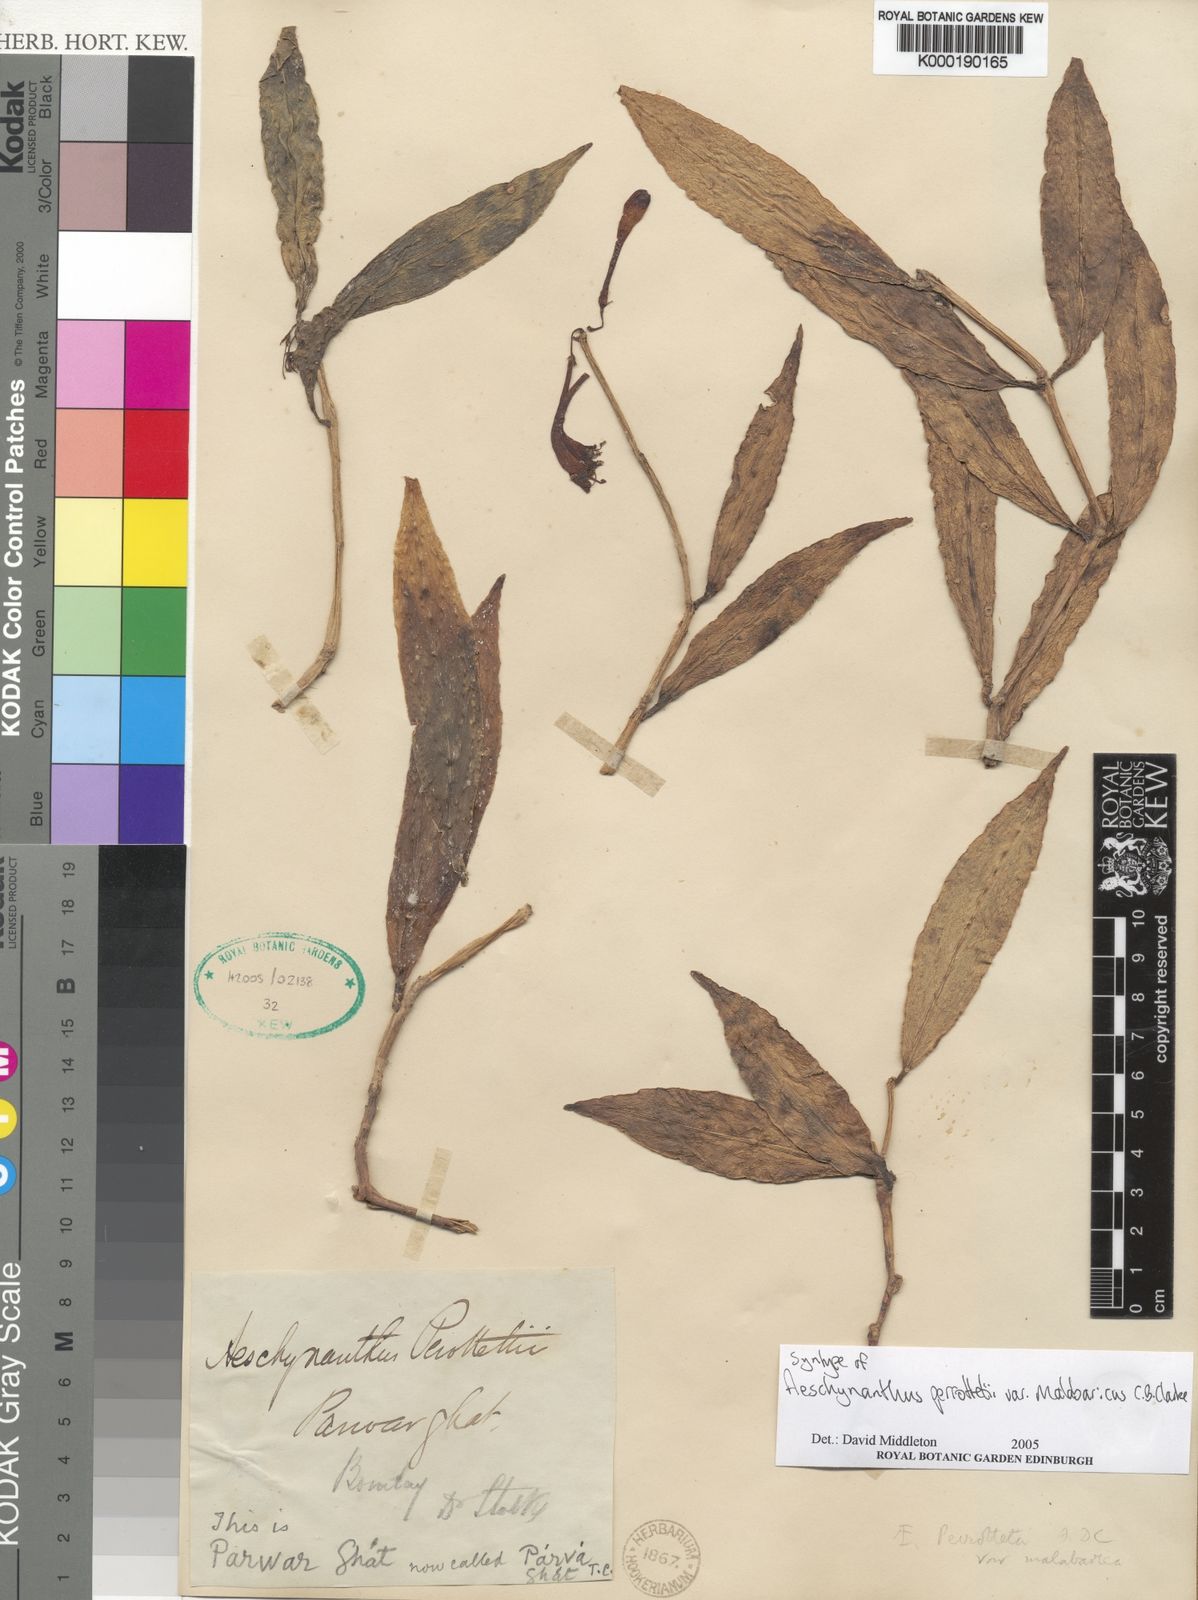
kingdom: Plantae
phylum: Tracheophyta
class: Magnoliopsida
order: Lamiales
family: Gesneriaceae
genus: Aeschynanthus
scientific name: Aeschynanthus perrottetii
